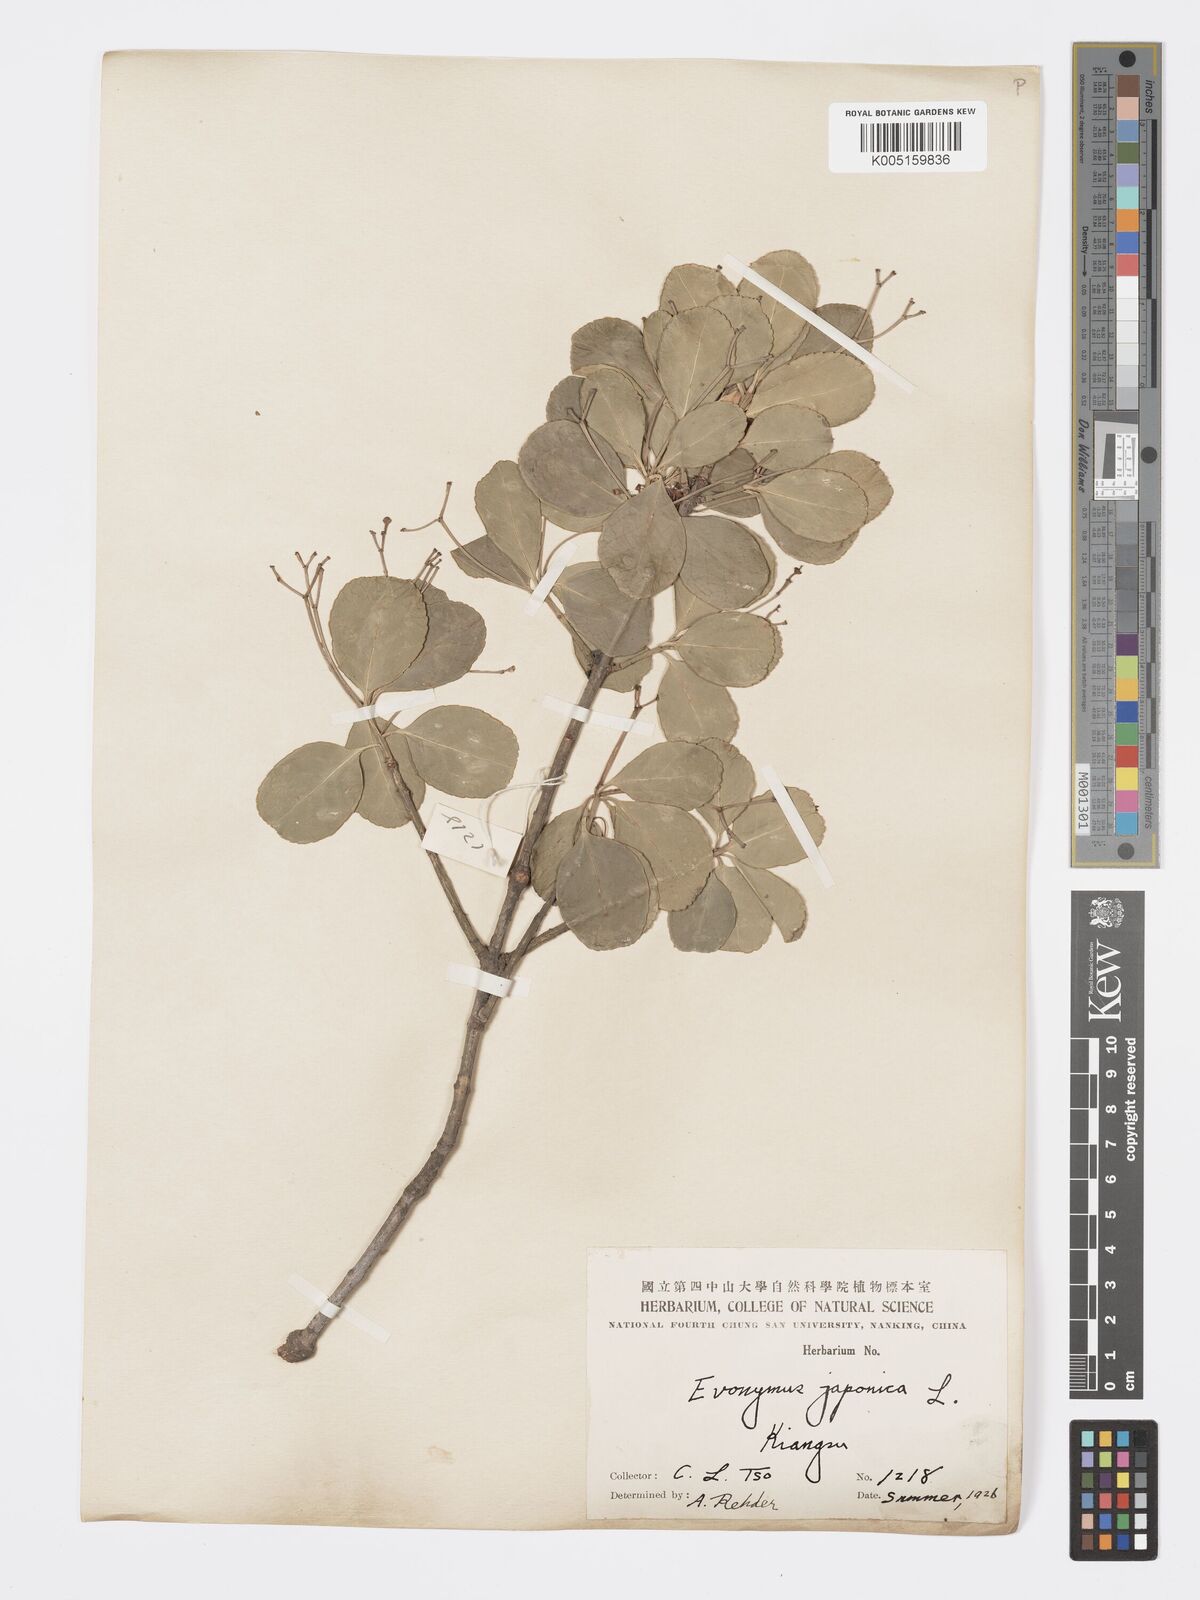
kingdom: Plantae
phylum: Tracheophyta
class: Magnoliopsida
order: Celastrales
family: Celastraceae
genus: Euonymus
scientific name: Euonymus
